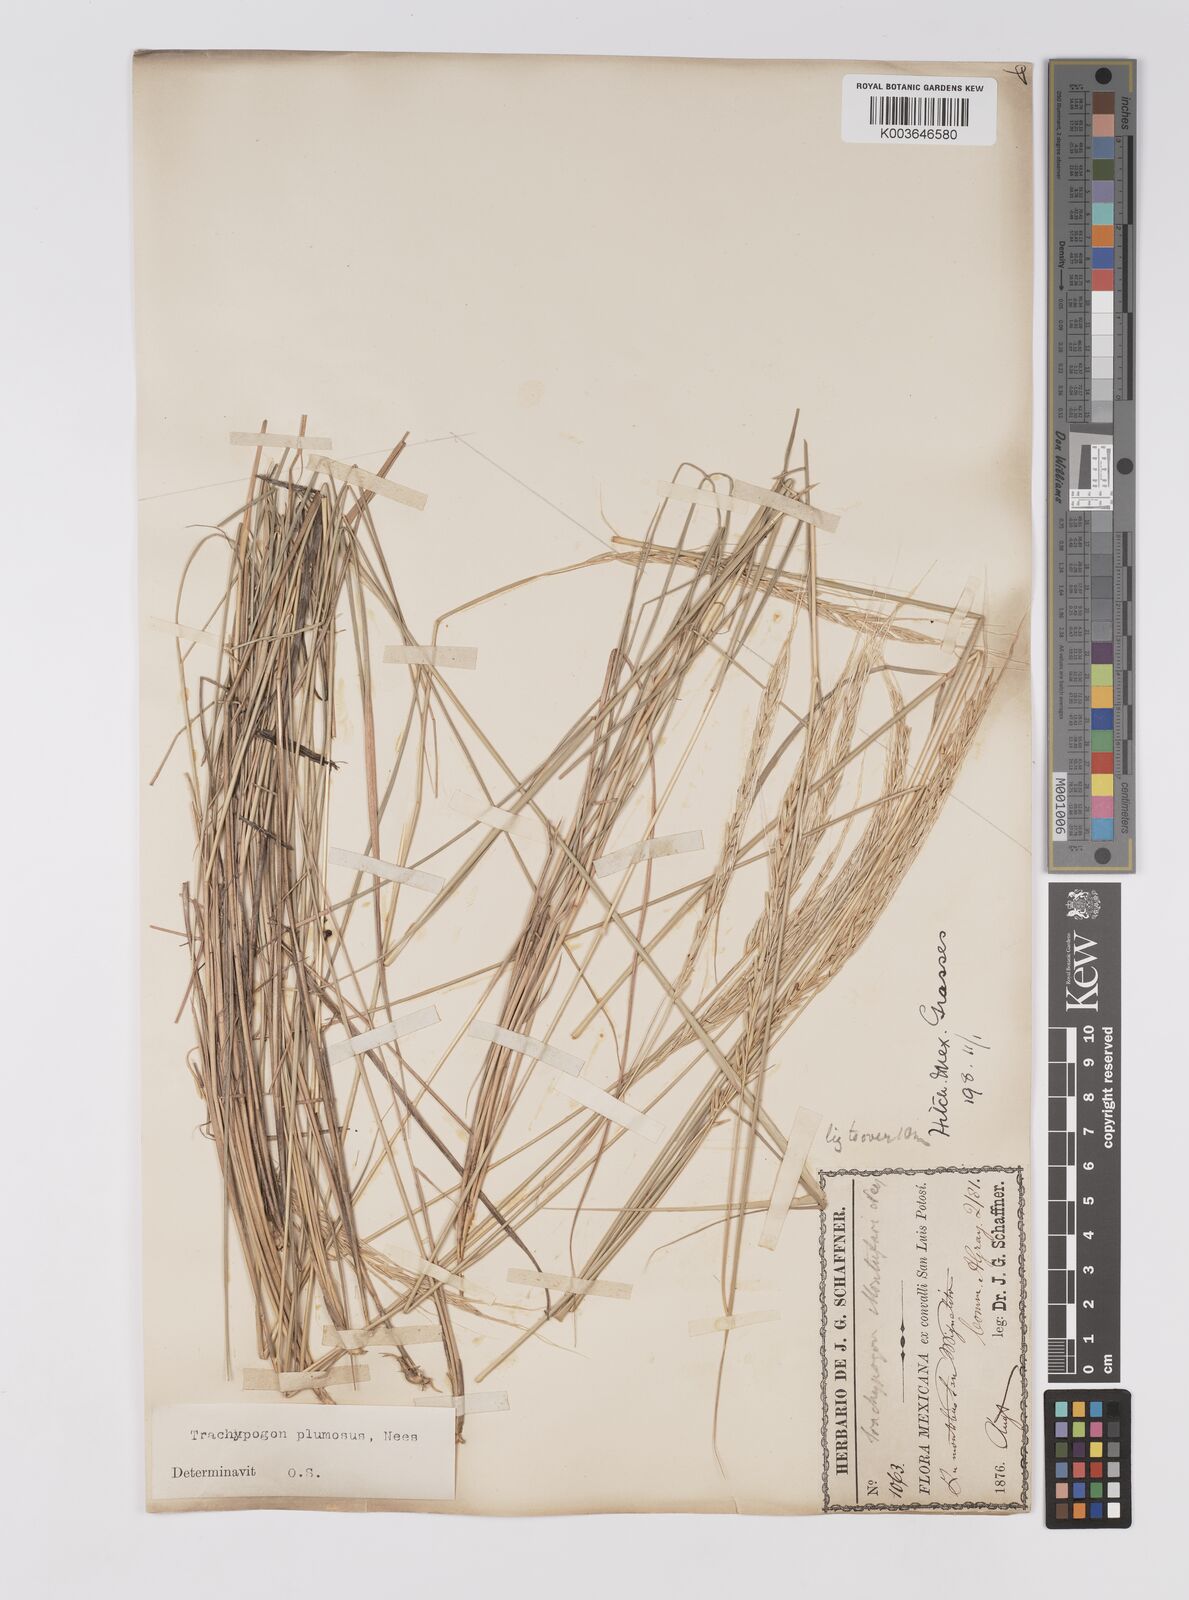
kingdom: Plantae
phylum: Tracheophyta
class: Liliopsida
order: Poales
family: Poaceae
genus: Trachypogon
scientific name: Trachypogon spicatus
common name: Crinkle-awn
